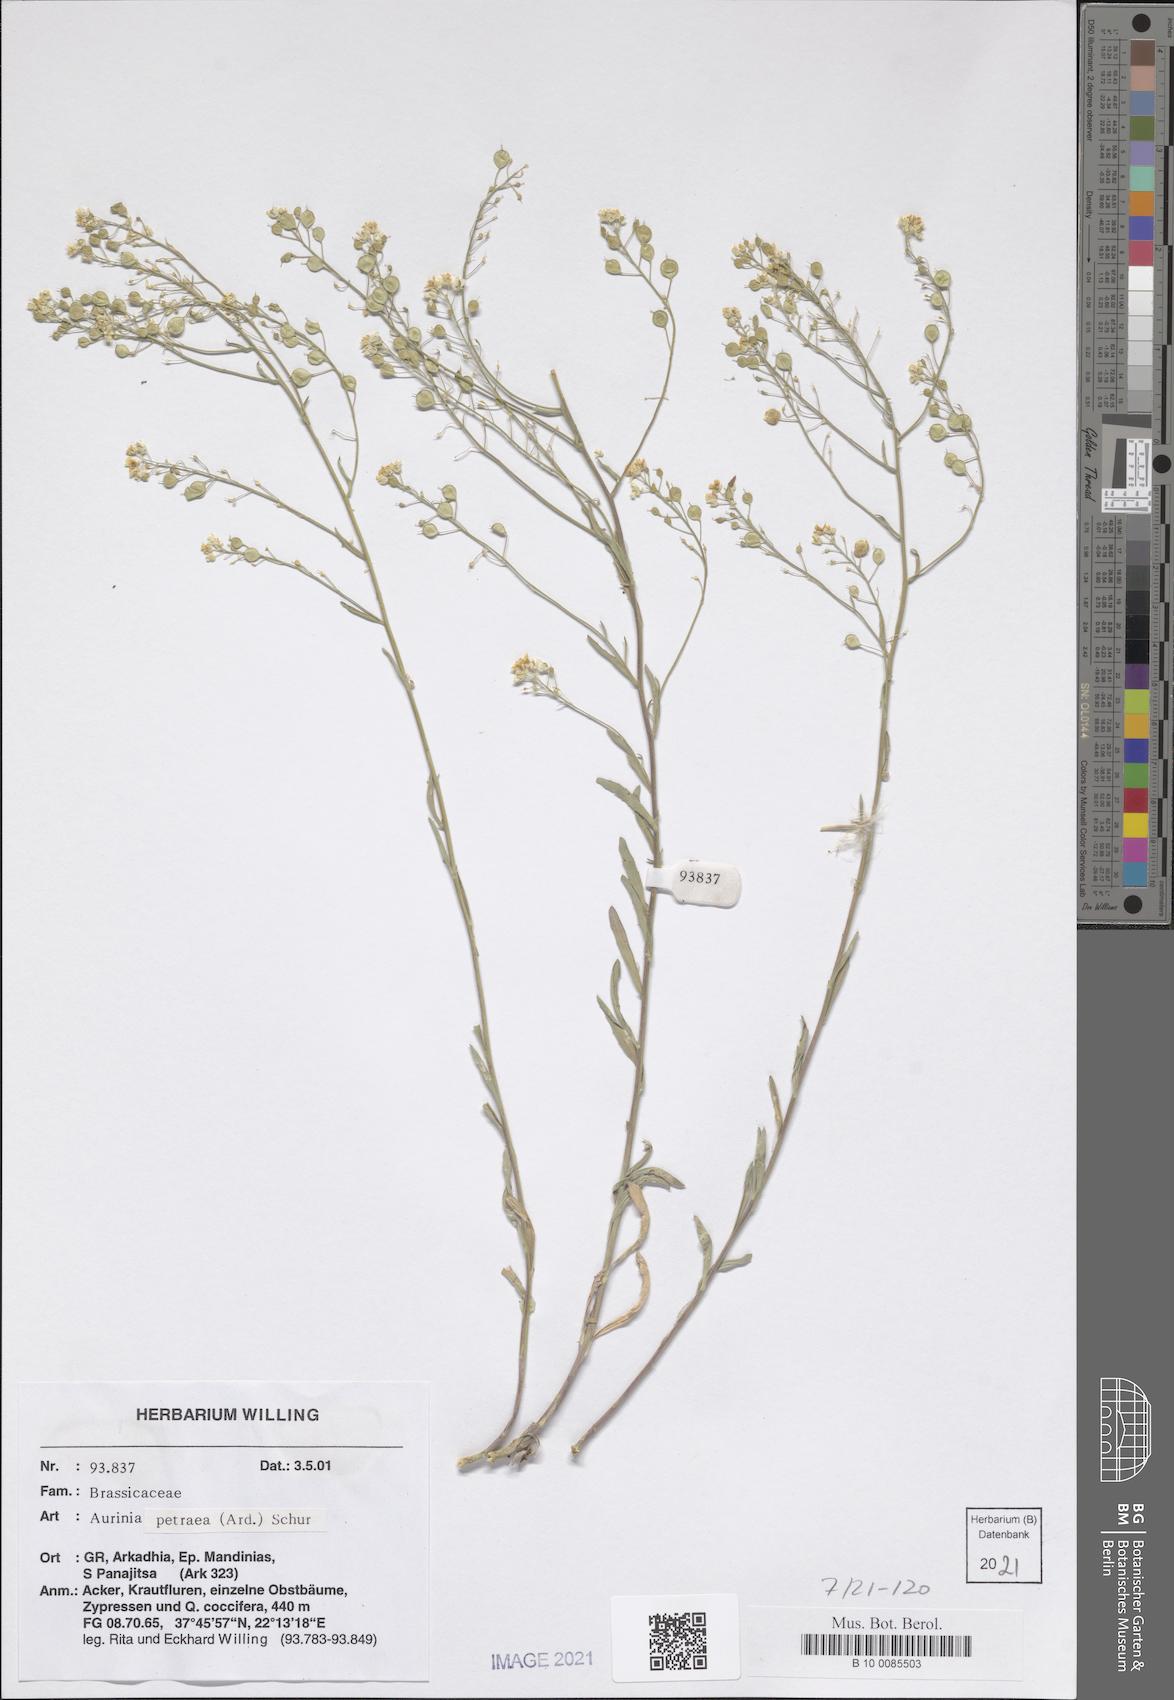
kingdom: Plantae
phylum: Tracheophyta
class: Magnoliopsida
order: Brassicales
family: Brassicaceae
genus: Aurinia
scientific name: Aurinia petraea
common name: Goldentuft
